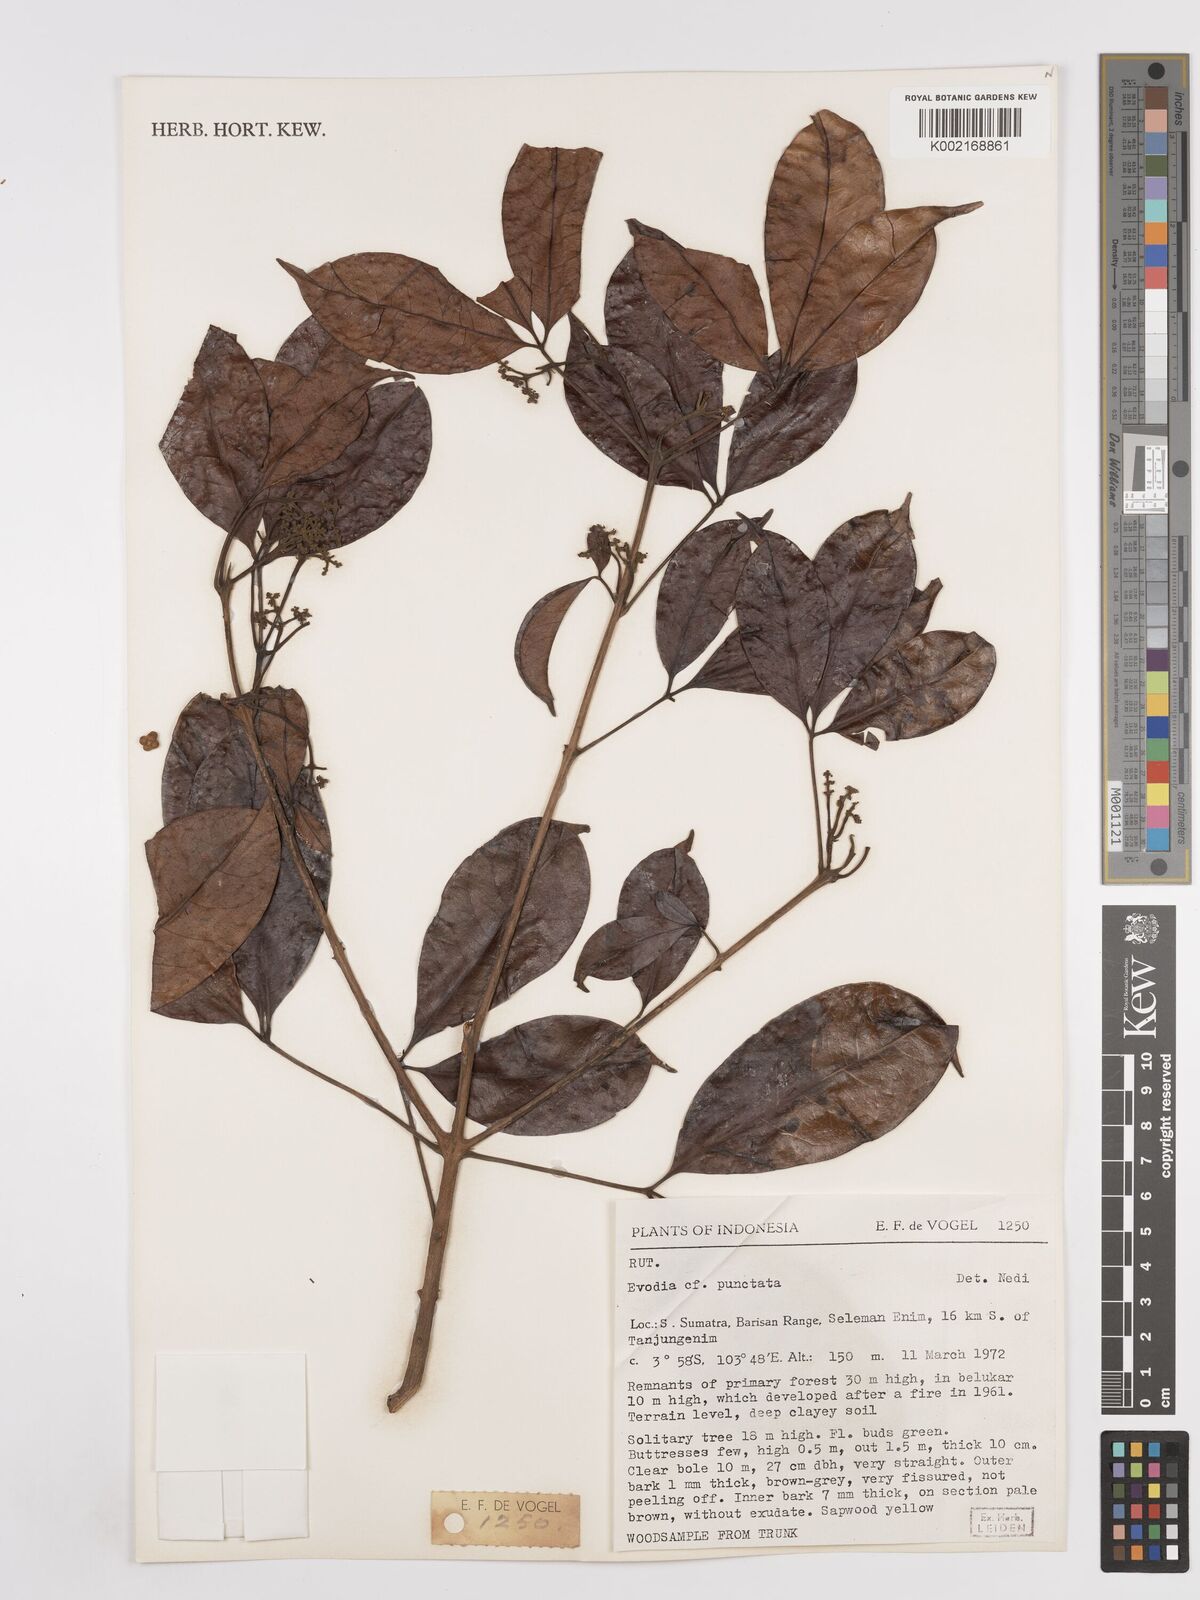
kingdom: Plantae
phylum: Tracheophyta
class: Magnoliopsida
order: Sapindales
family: Rutaceae
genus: Melicope
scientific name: Melicope lunu-ankenda
